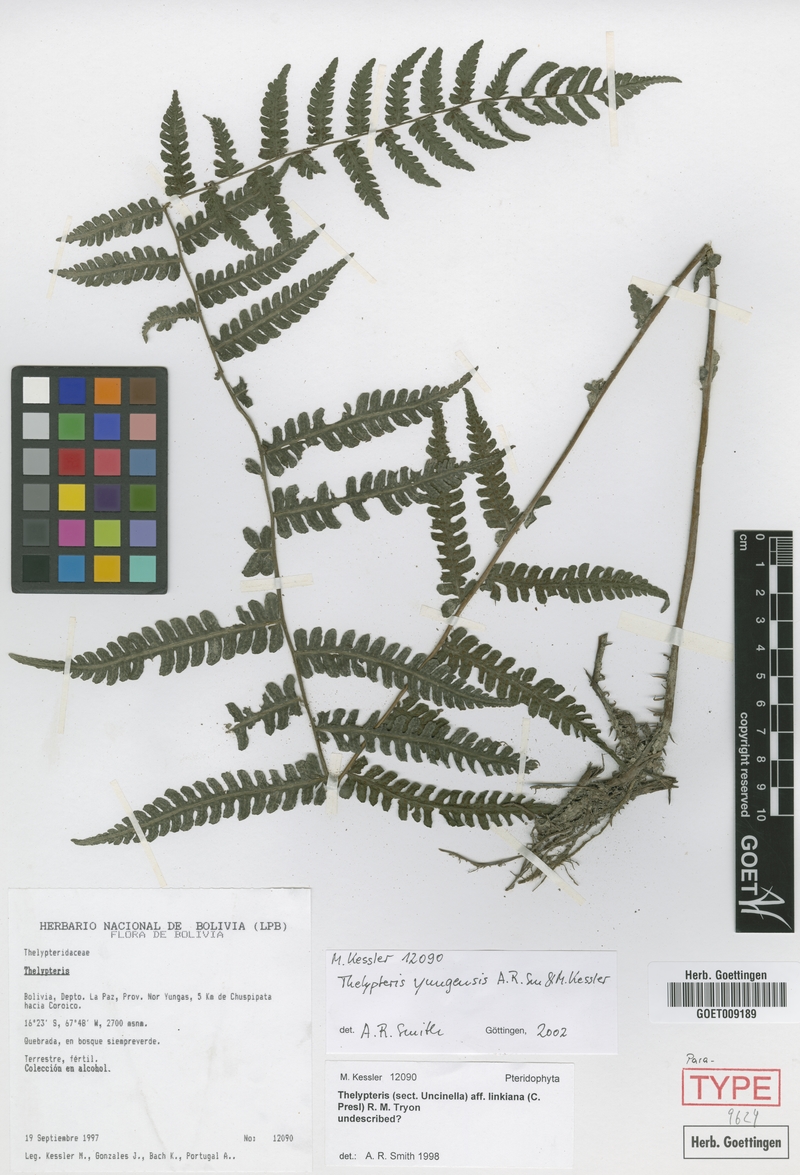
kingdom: Plantae
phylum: Tracheophyta
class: Polypodiopsida
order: Polypodiales
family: Thelypteridaceae
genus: Amauropelta
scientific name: Amauropelta yungensis
